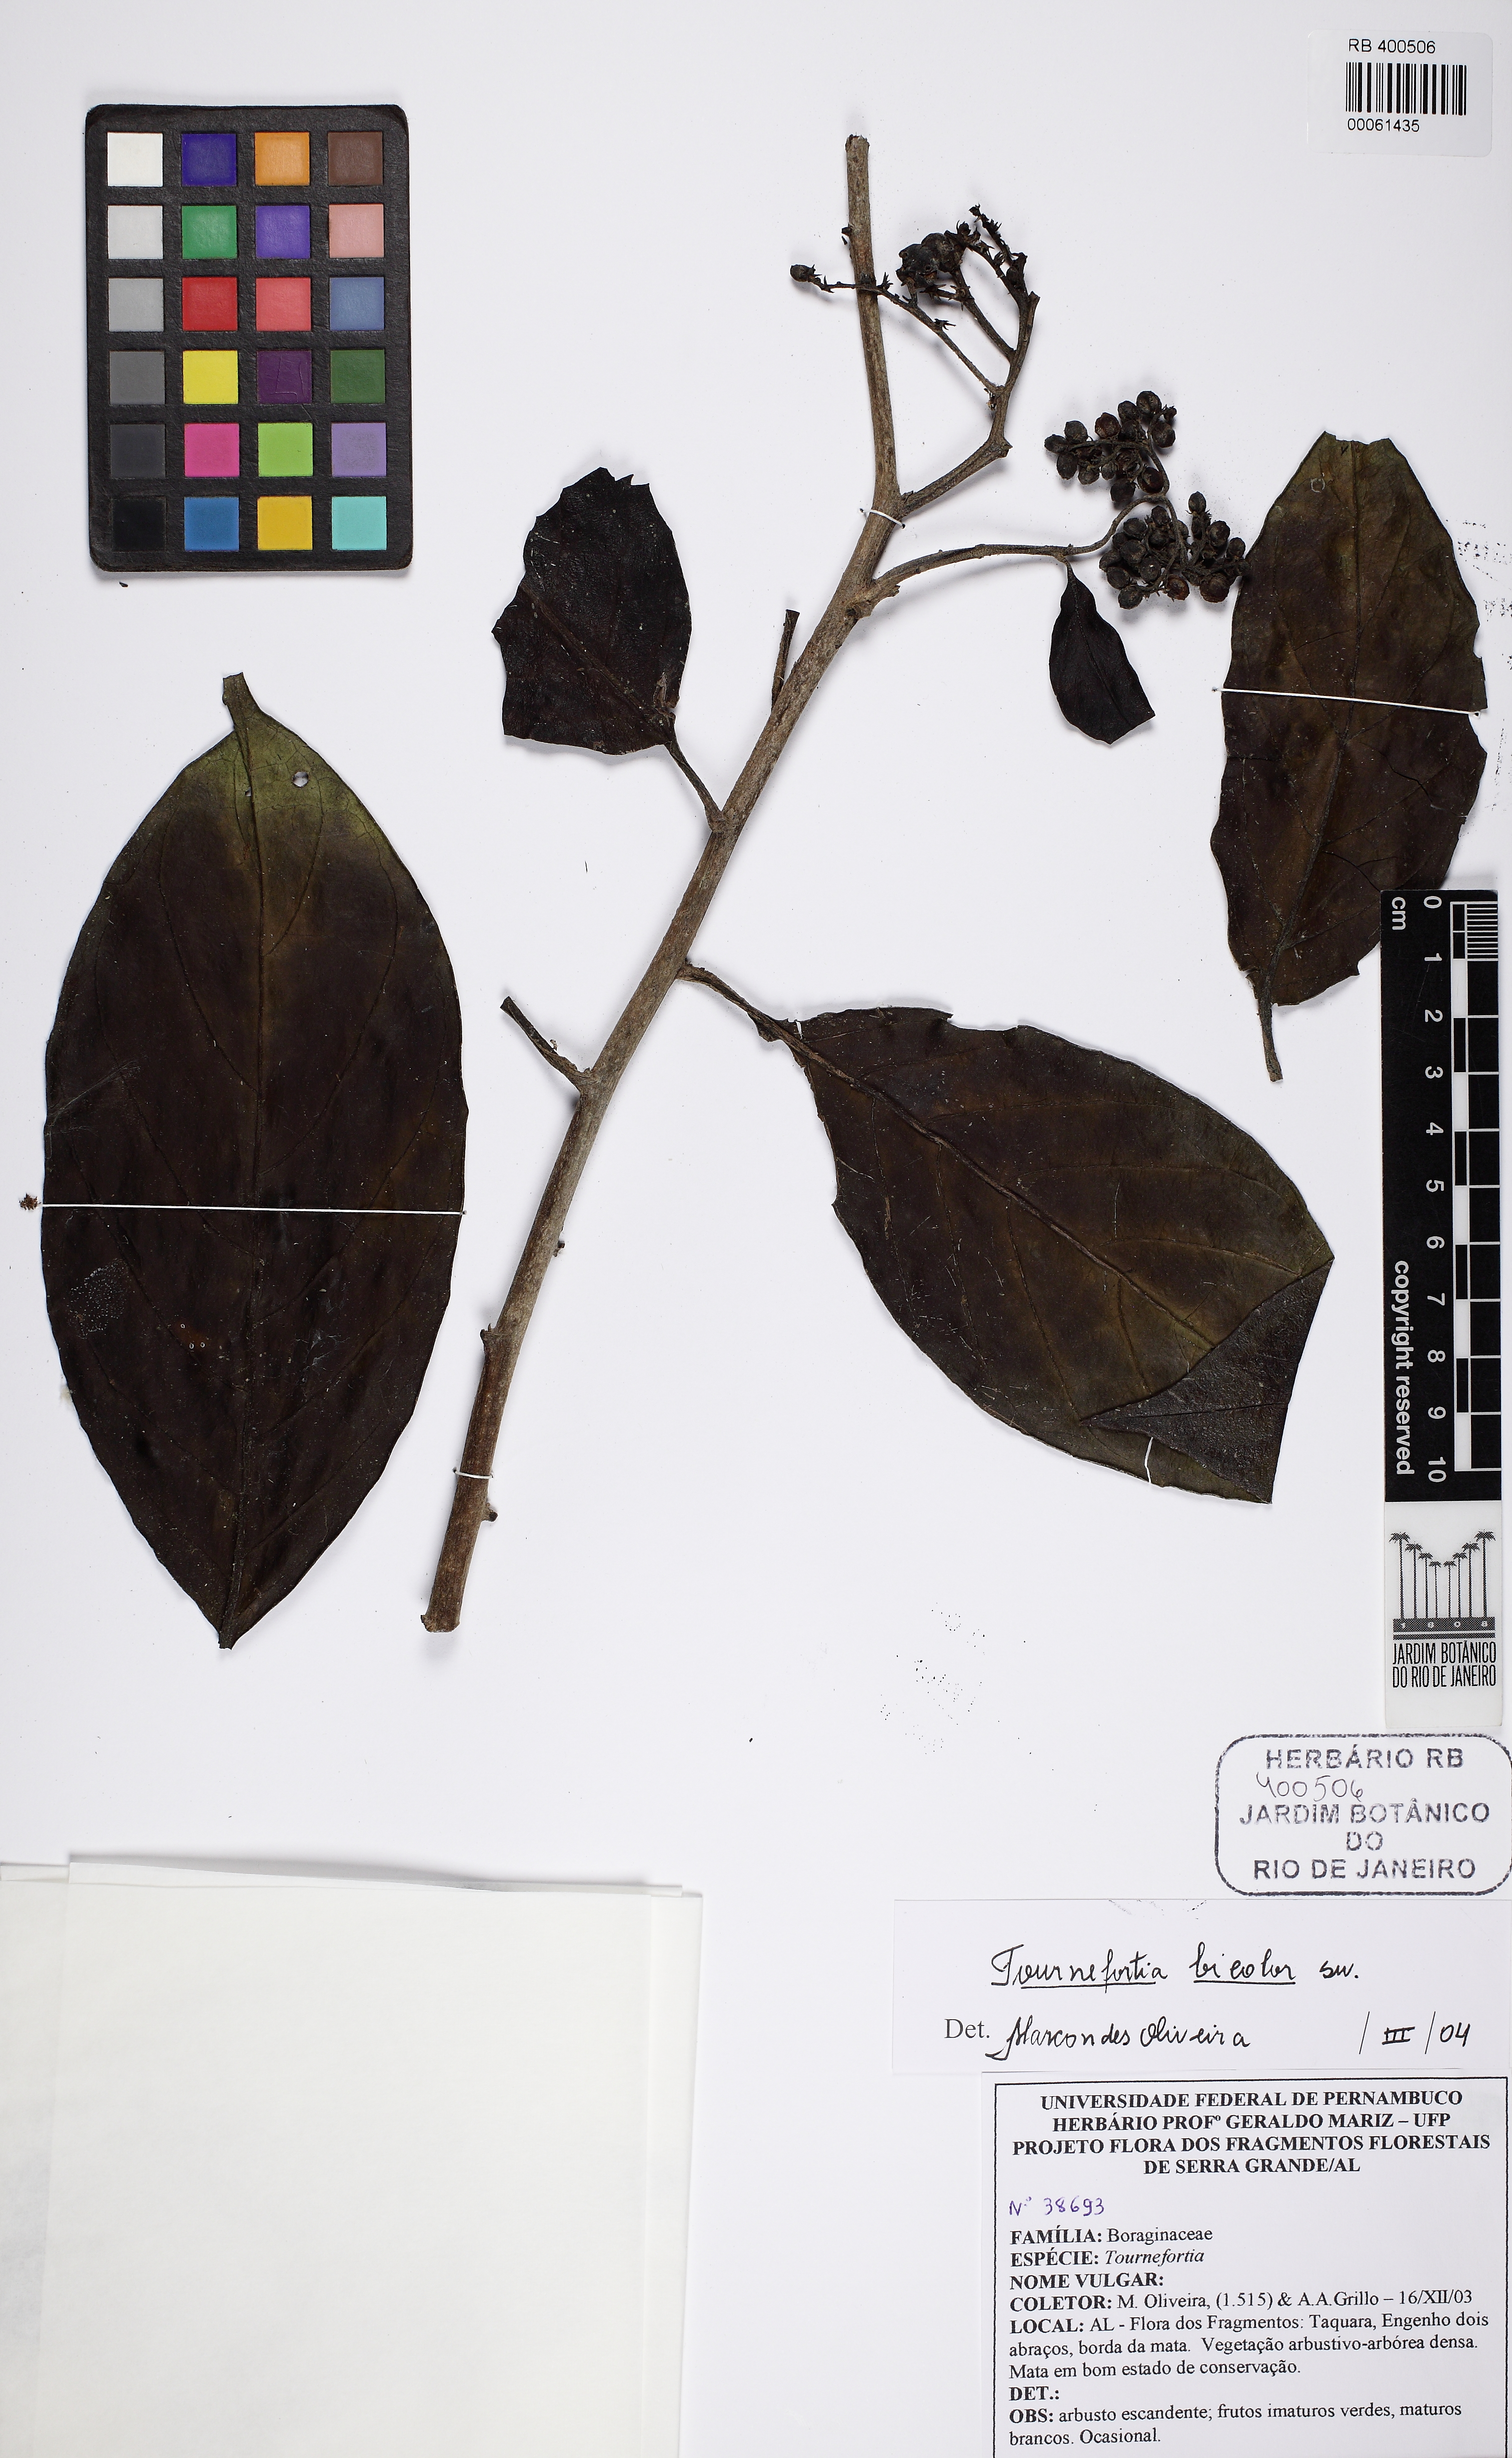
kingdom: Plantae
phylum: Tracheophyta
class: Magnoliopsida
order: Boraginales
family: Heliotropiaceae
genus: Heliotropium
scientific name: Heliotropium verdcourtii
